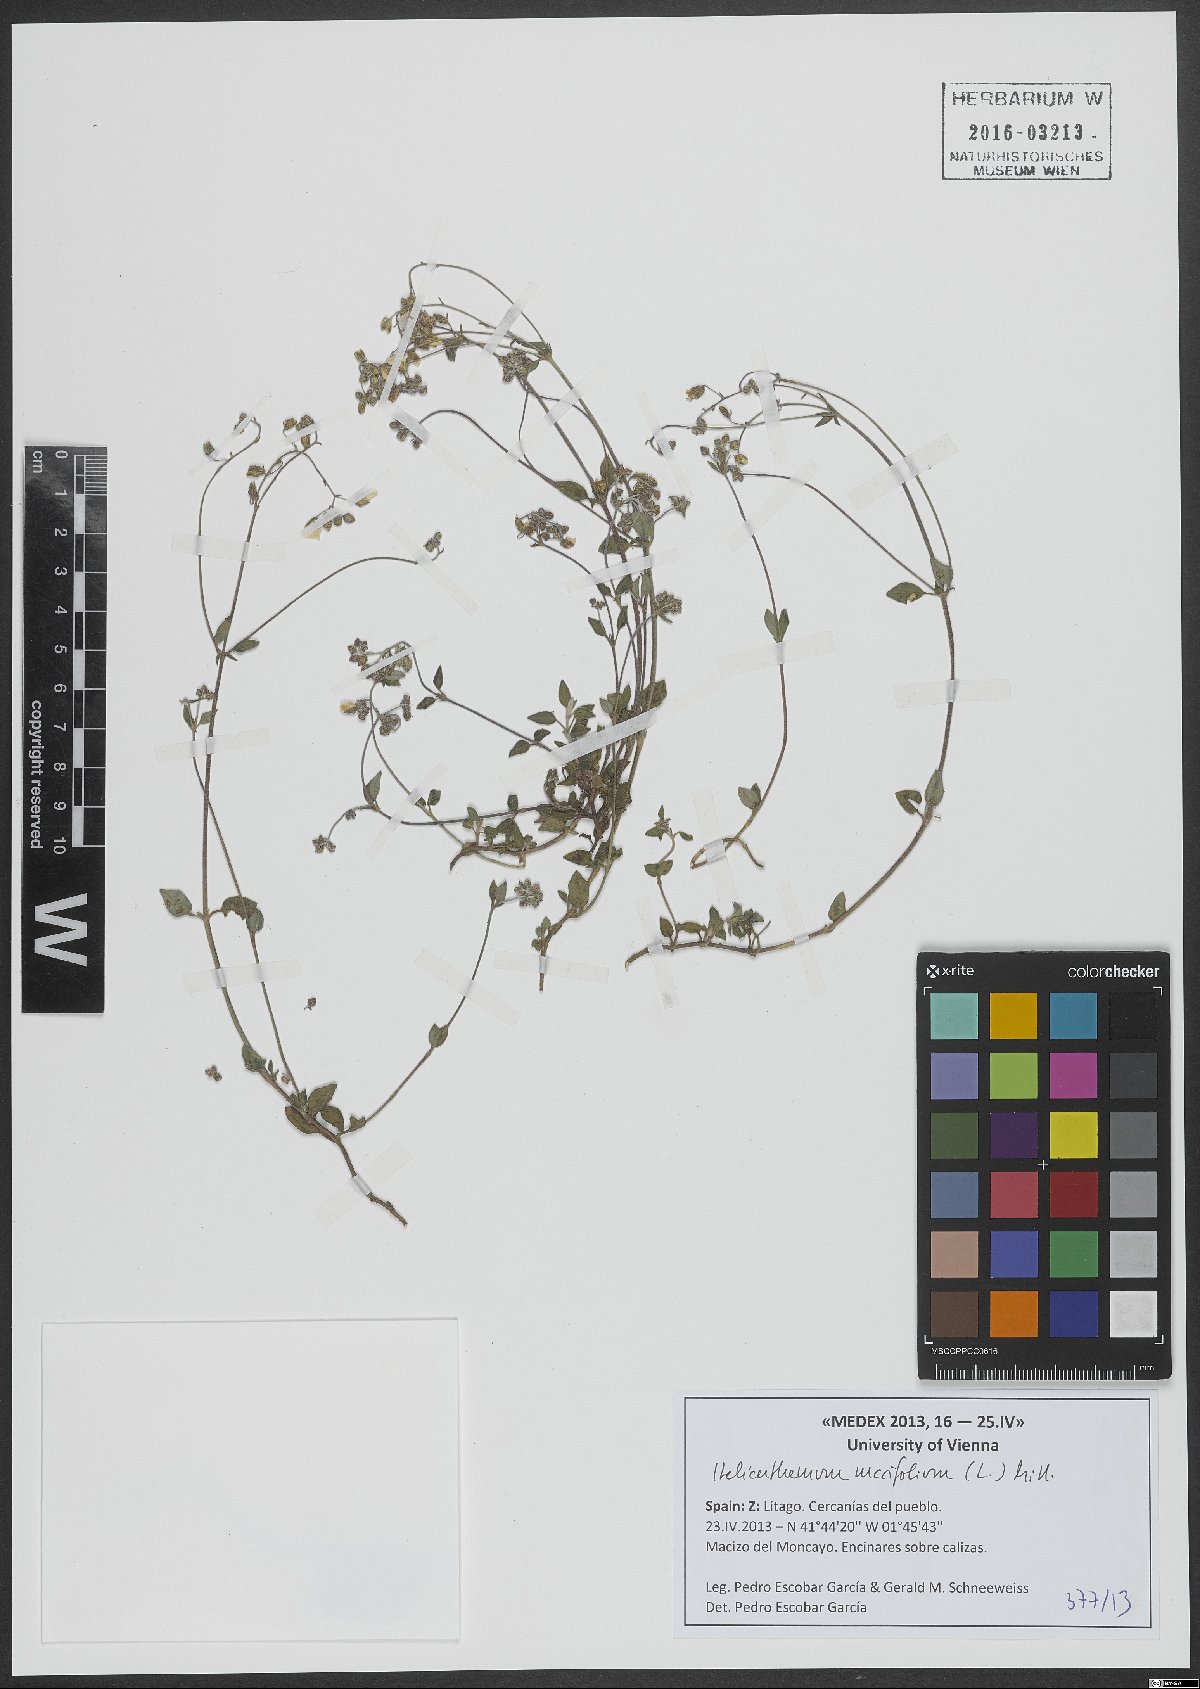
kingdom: Plantae
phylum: Tracheophyta
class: Magnoliopsida
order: Malvales
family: Cistaceae
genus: Helianthemum
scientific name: Helianthemum marifolium
